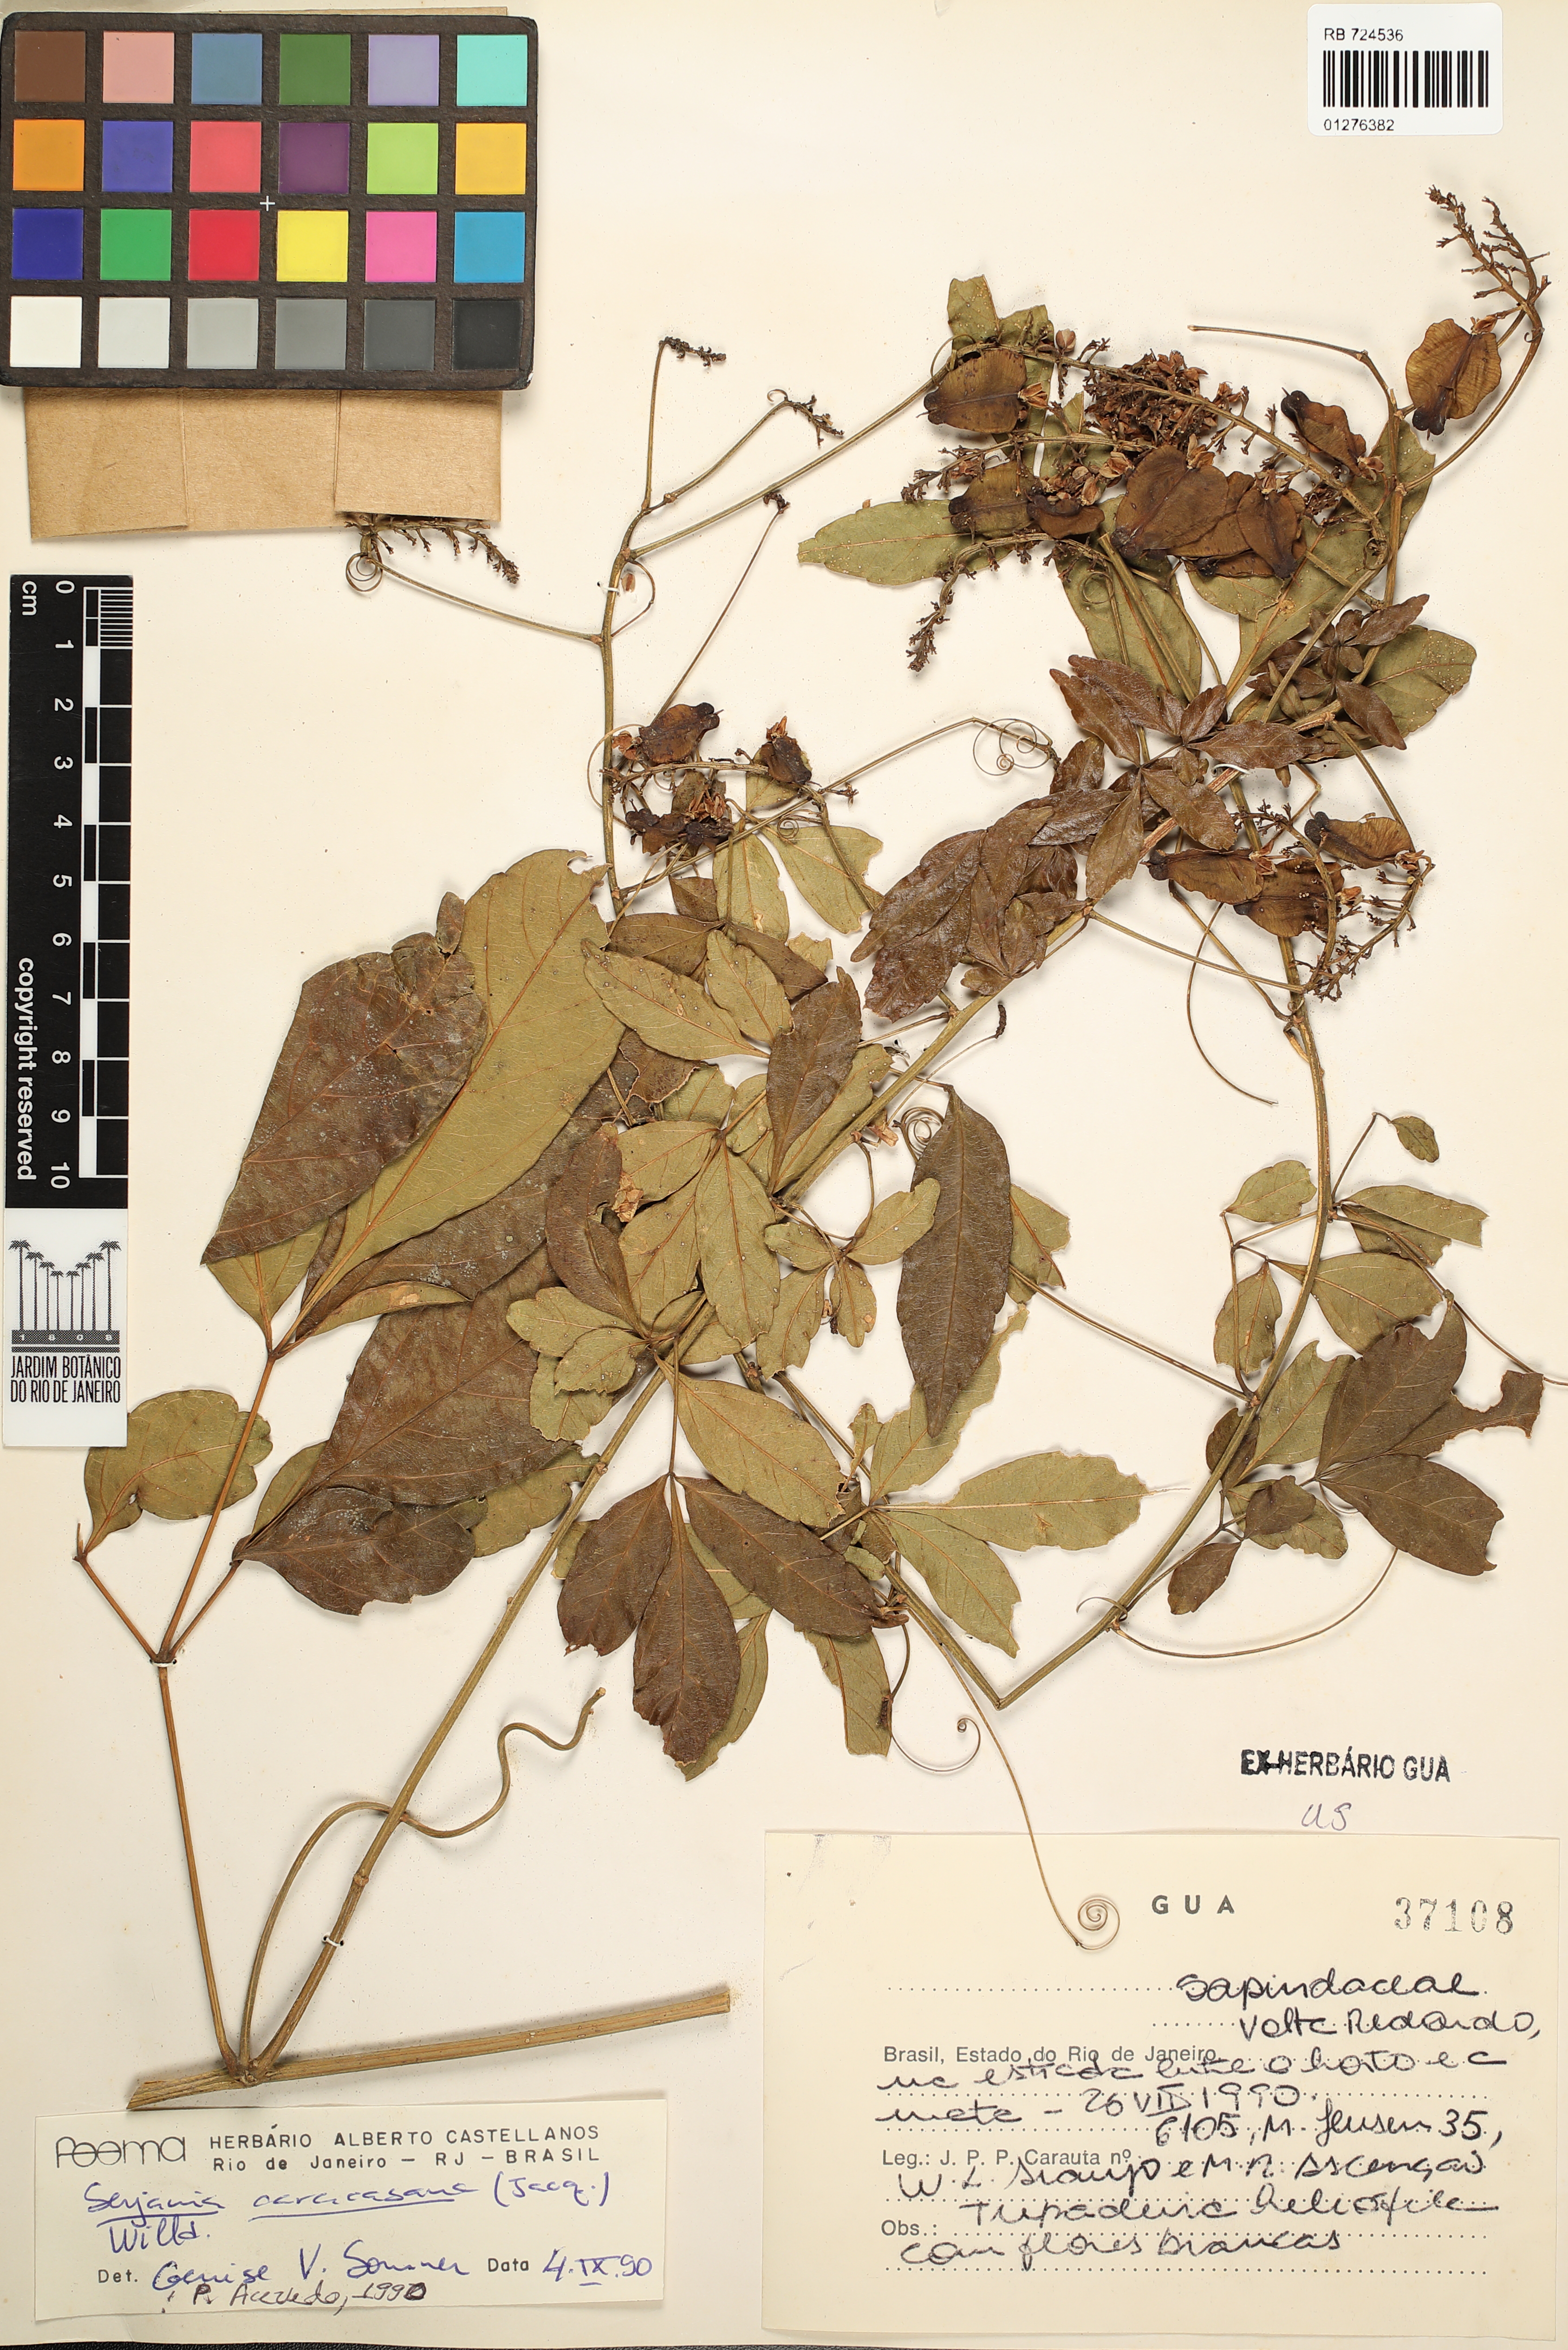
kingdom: Plantae
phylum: Tracheophyta
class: Magnoliopsida
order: Sapindales
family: Sapindaceae
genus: Serjania
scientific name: Serjania caracasana
